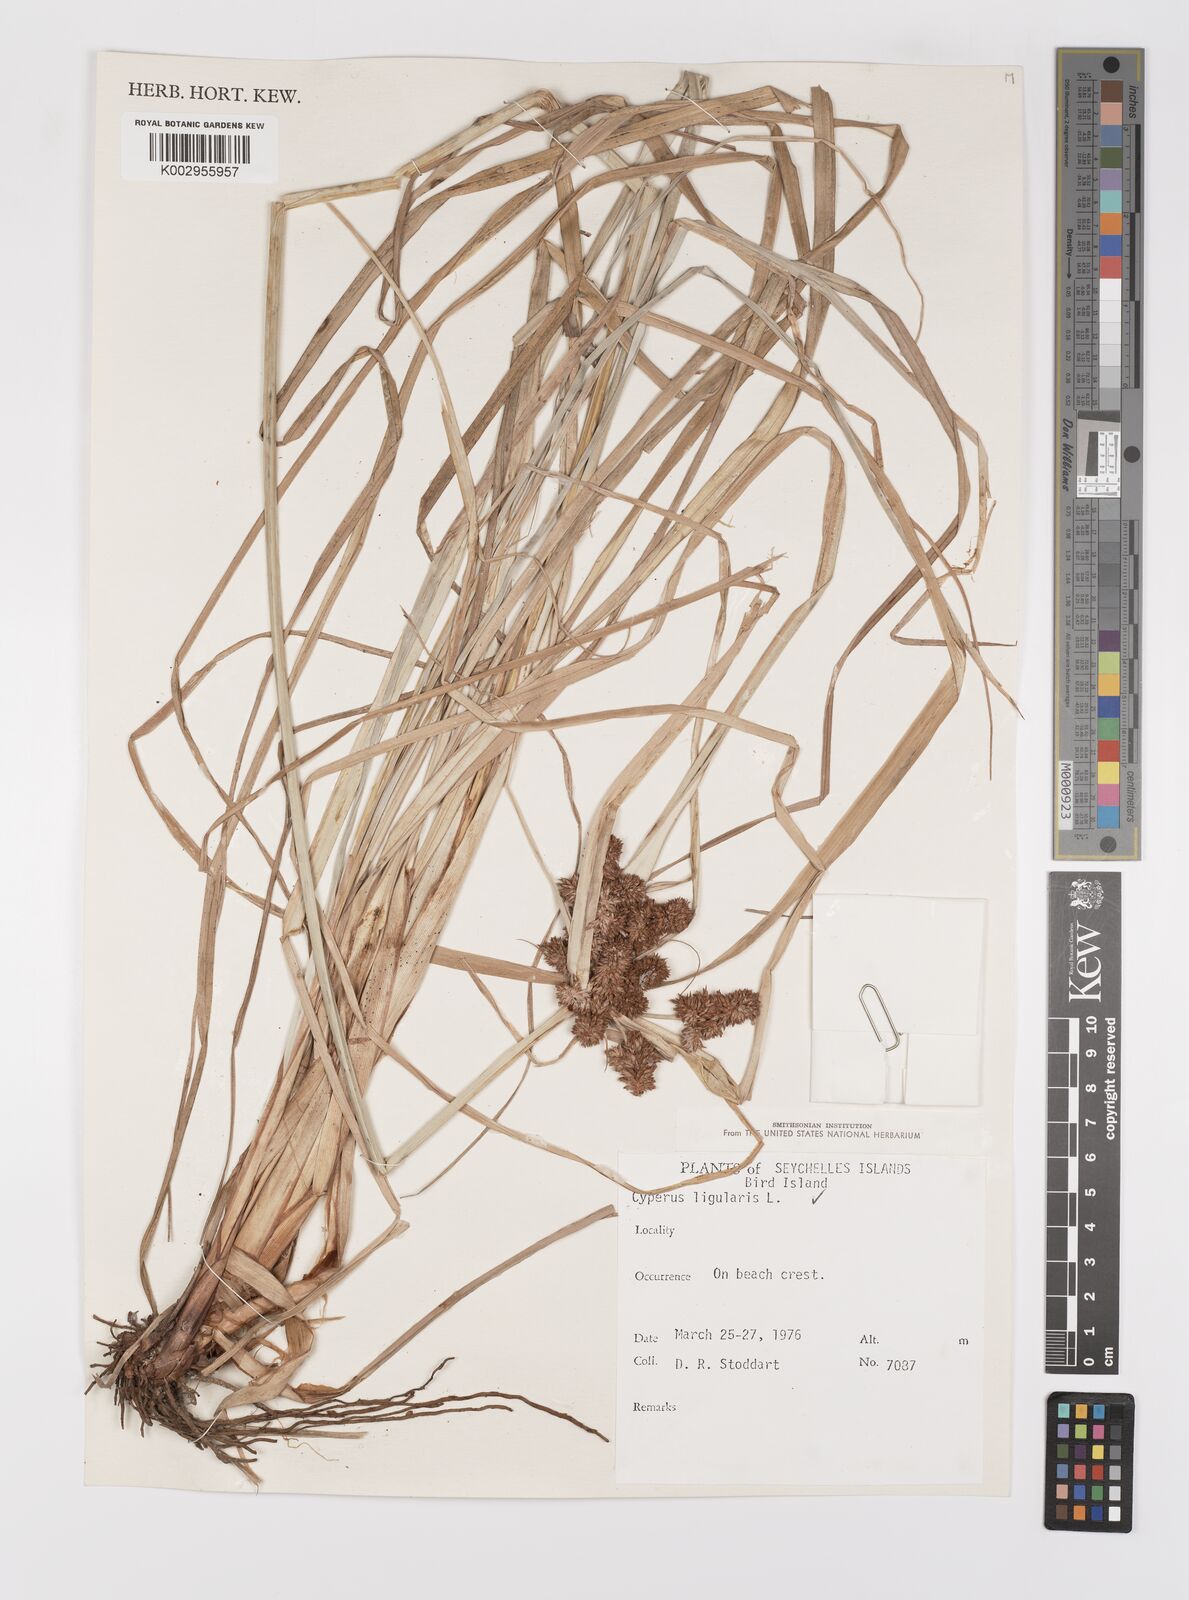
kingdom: Plantae
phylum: Tracheophyta
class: Liliopsida
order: Poales
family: Cyperaceae
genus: Cyperus
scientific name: Cyperus ligularis
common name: Swamp flat sedge
